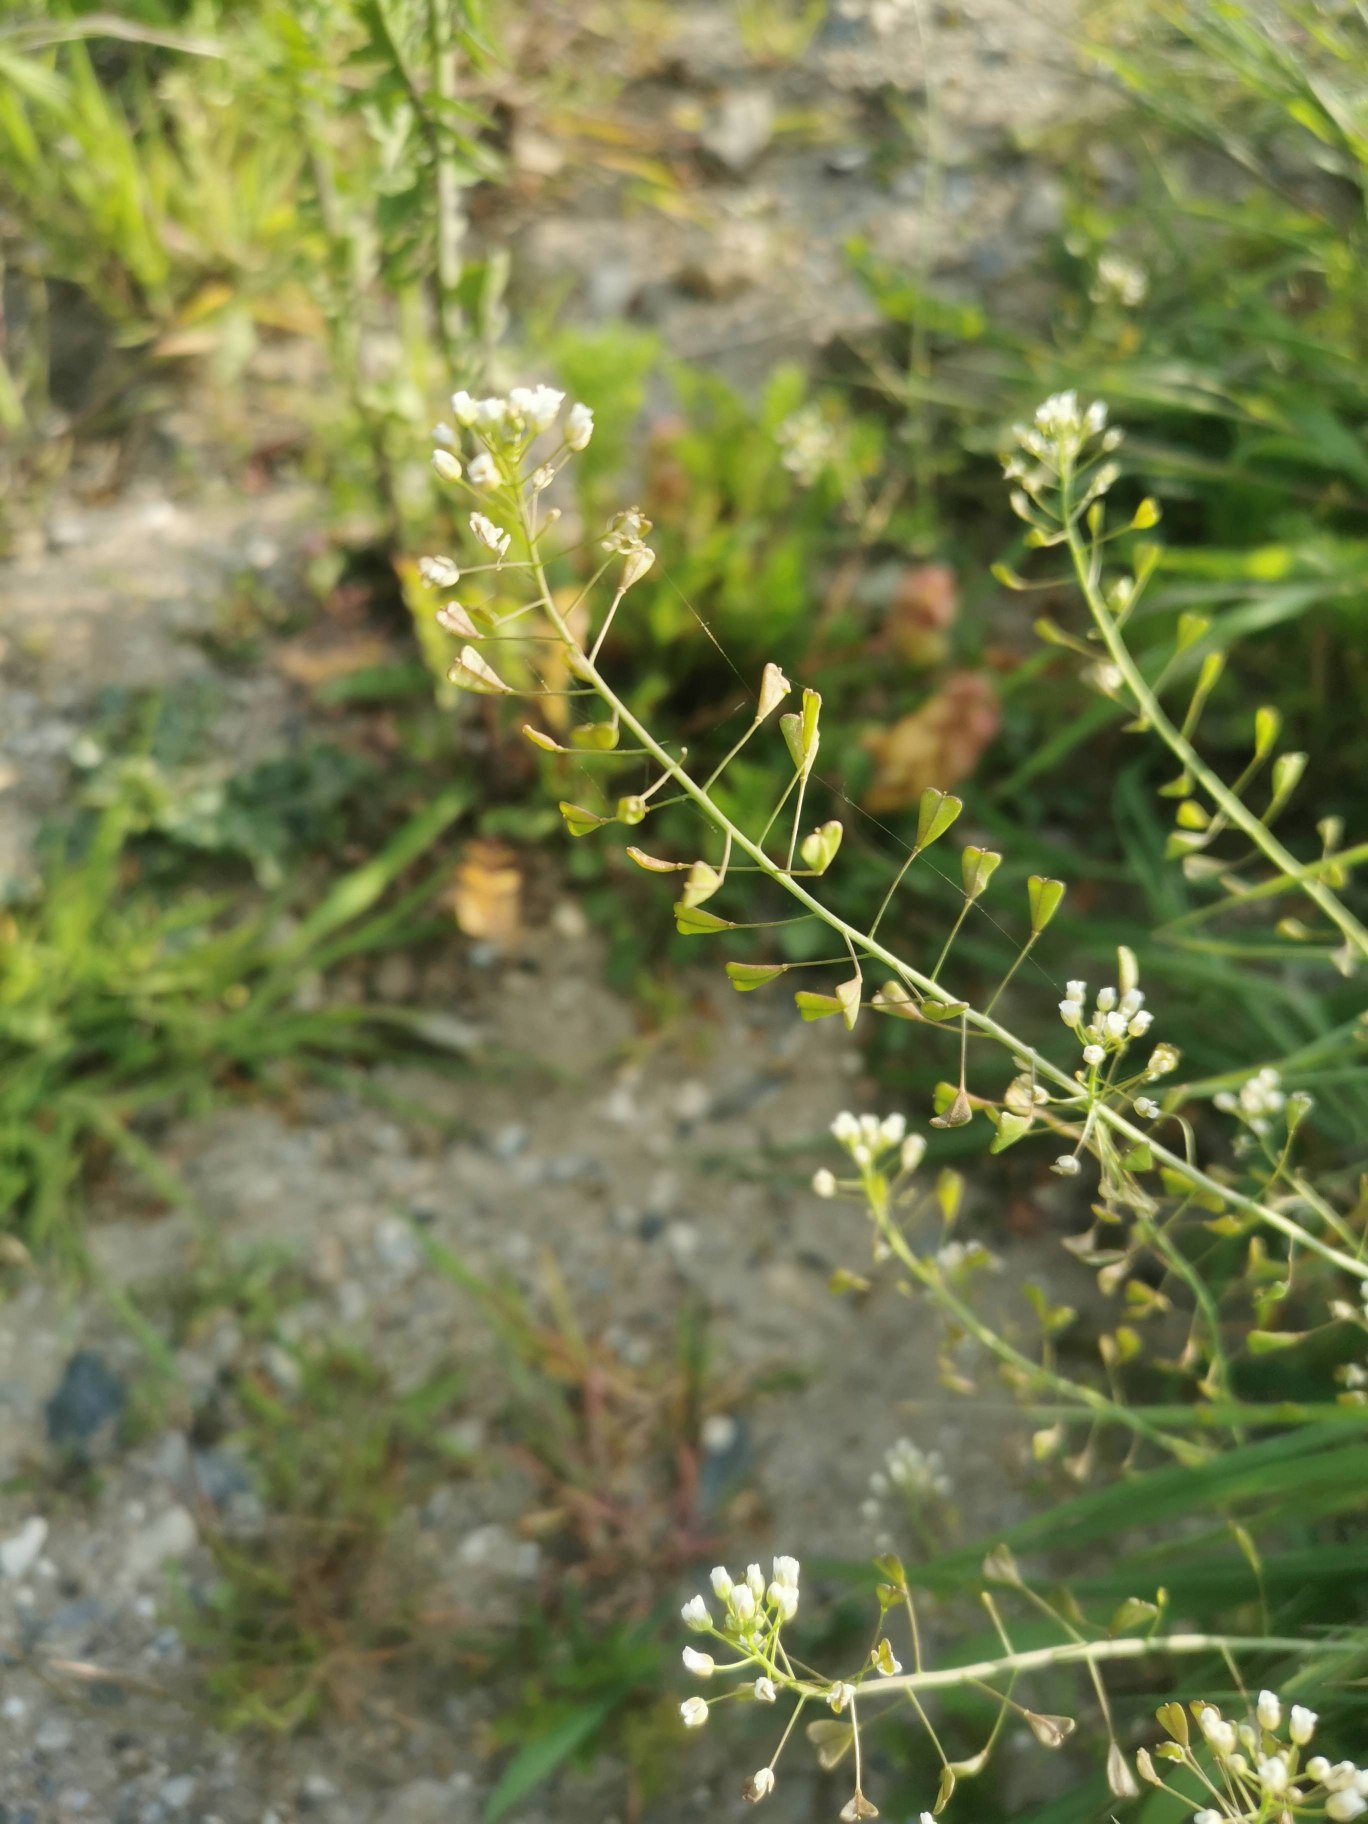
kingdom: Plantae
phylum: Tracheophyta
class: Magnoliopsida
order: Brassicales
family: Brassicaceae
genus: Capsella
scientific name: Capsella bursa-pastoris
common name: Hyrdetaske
